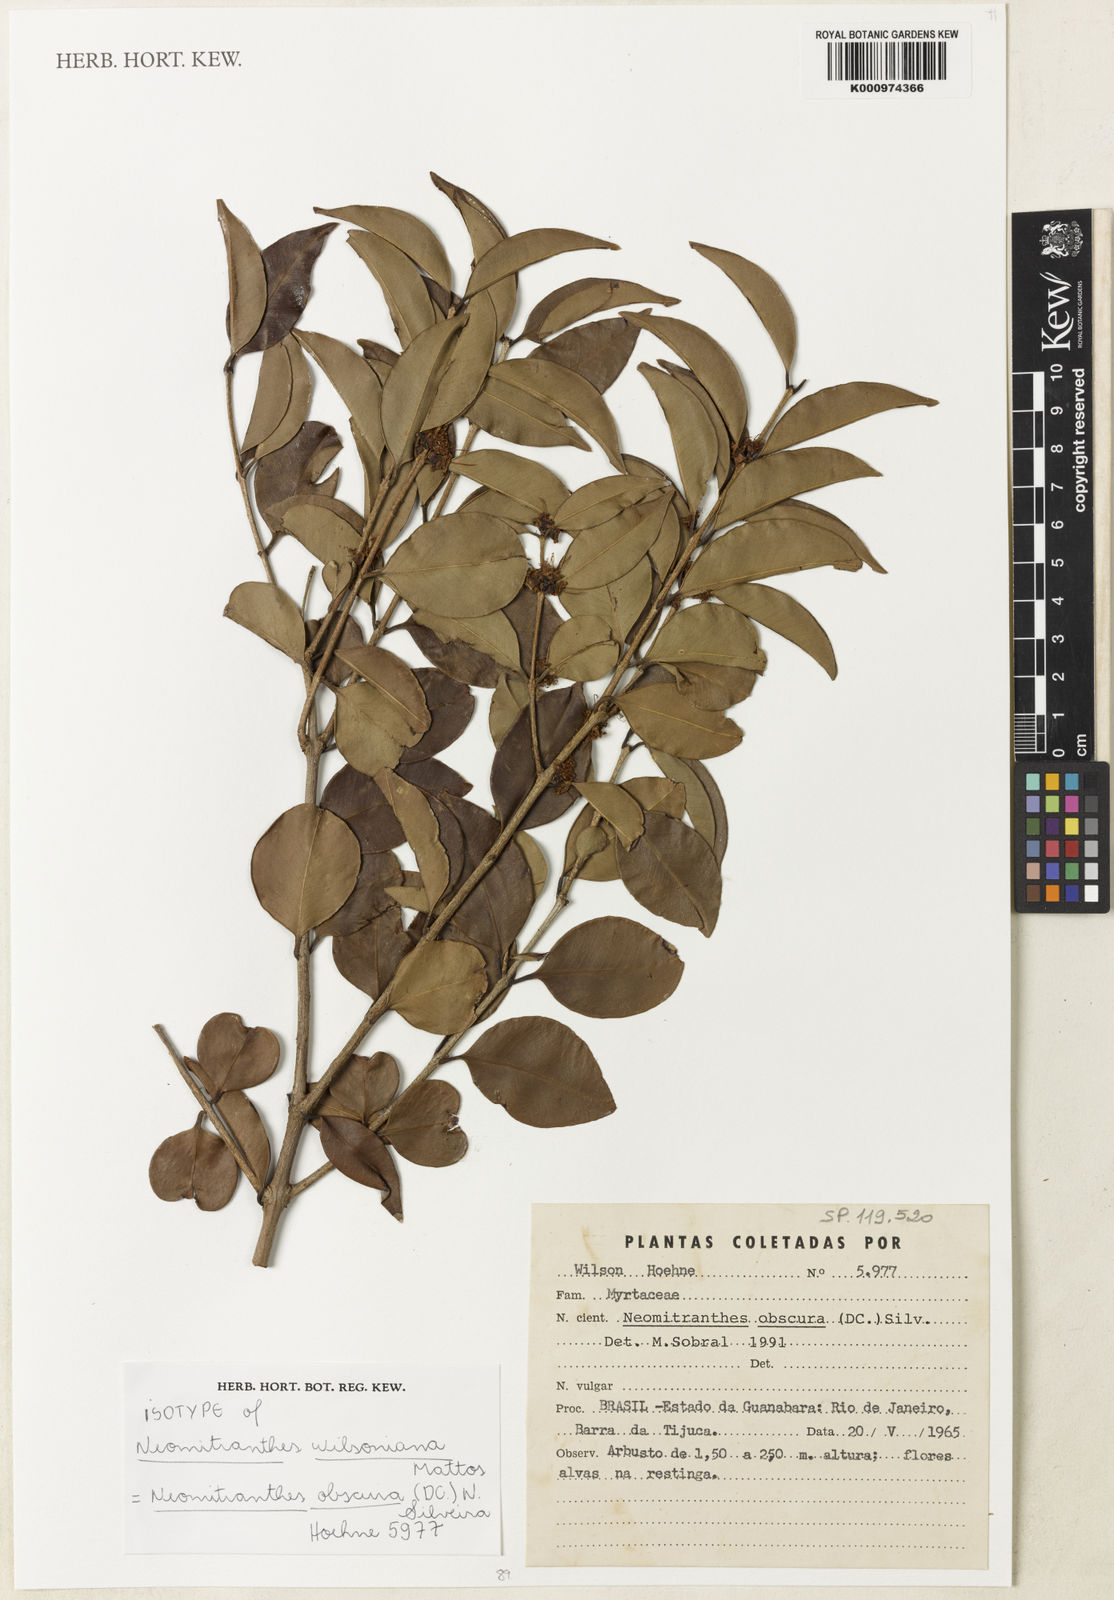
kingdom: Plantae
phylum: Tracheophyta
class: Magnoliopsida
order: Myrtales
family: Myrtaceae
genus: Neomitranthes
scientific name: Neomitranthes obscura
